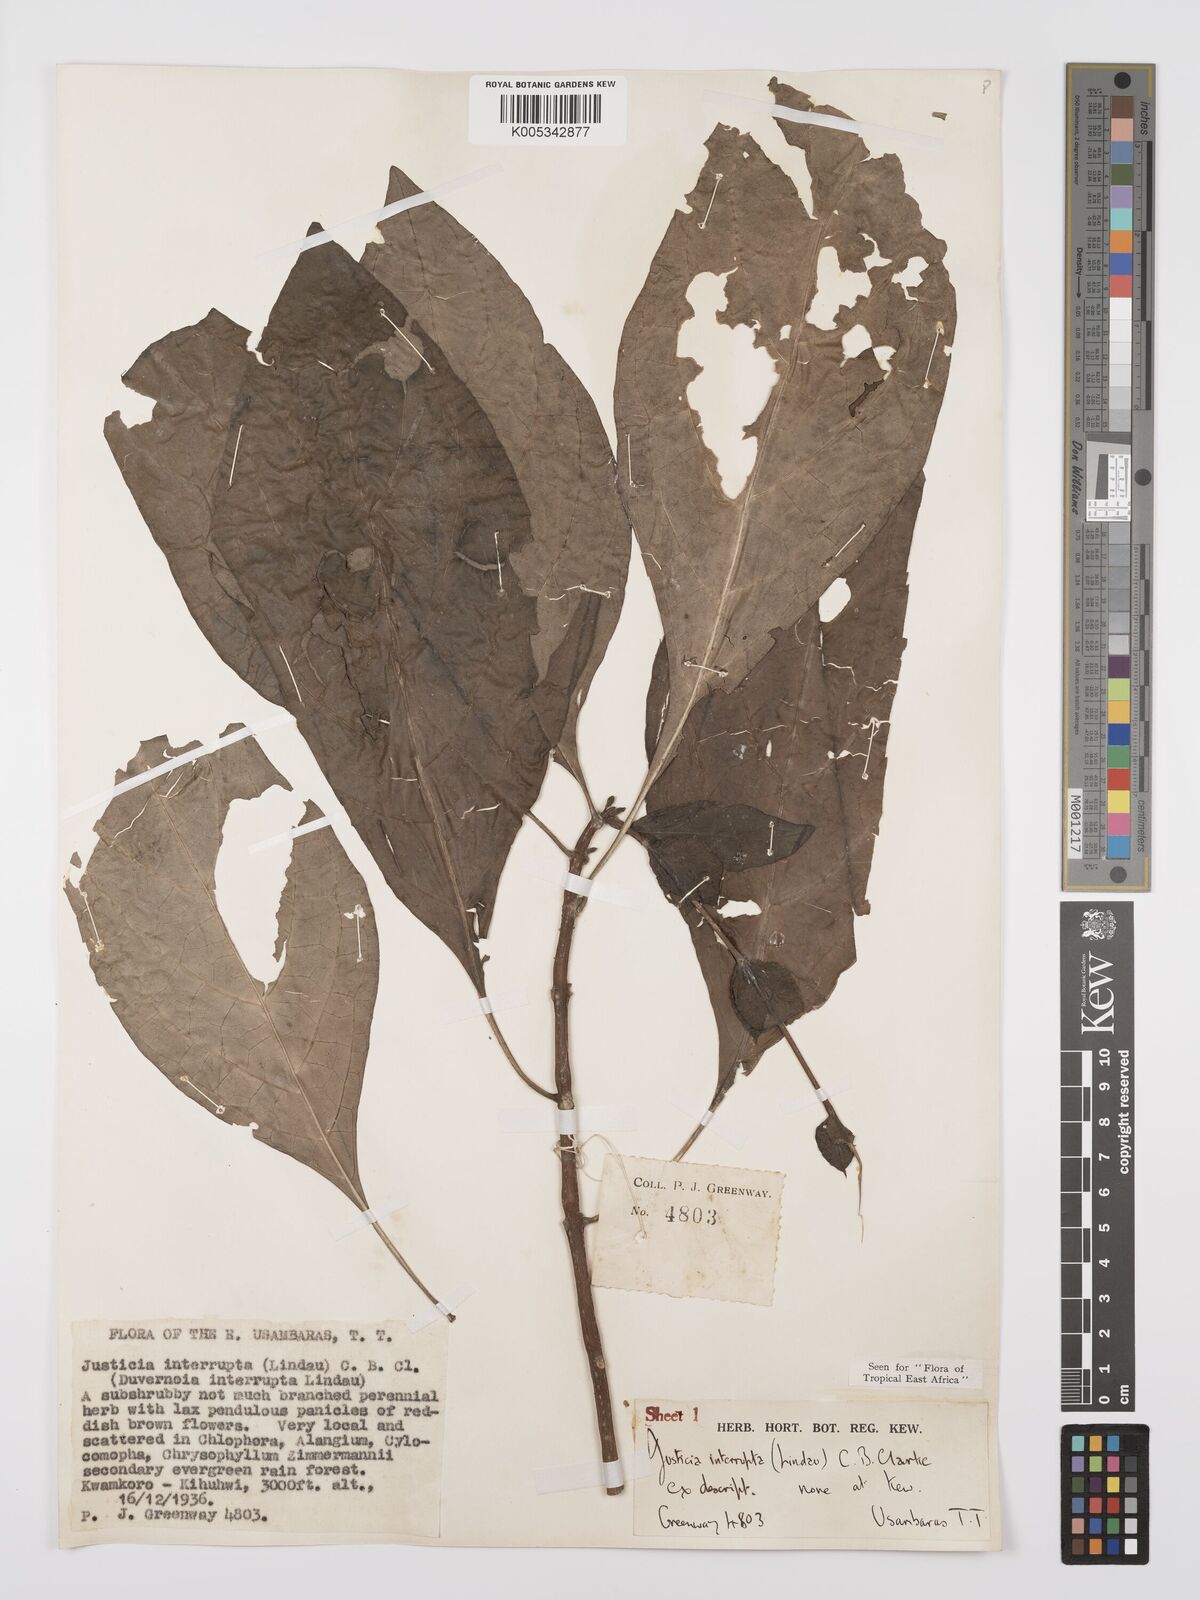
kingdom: Plantae
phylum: Tracheophyta
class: Magnoliopsida
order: Lamiales
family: Acanthaceae
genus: Justicia
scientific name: Justicia plectranthoides
